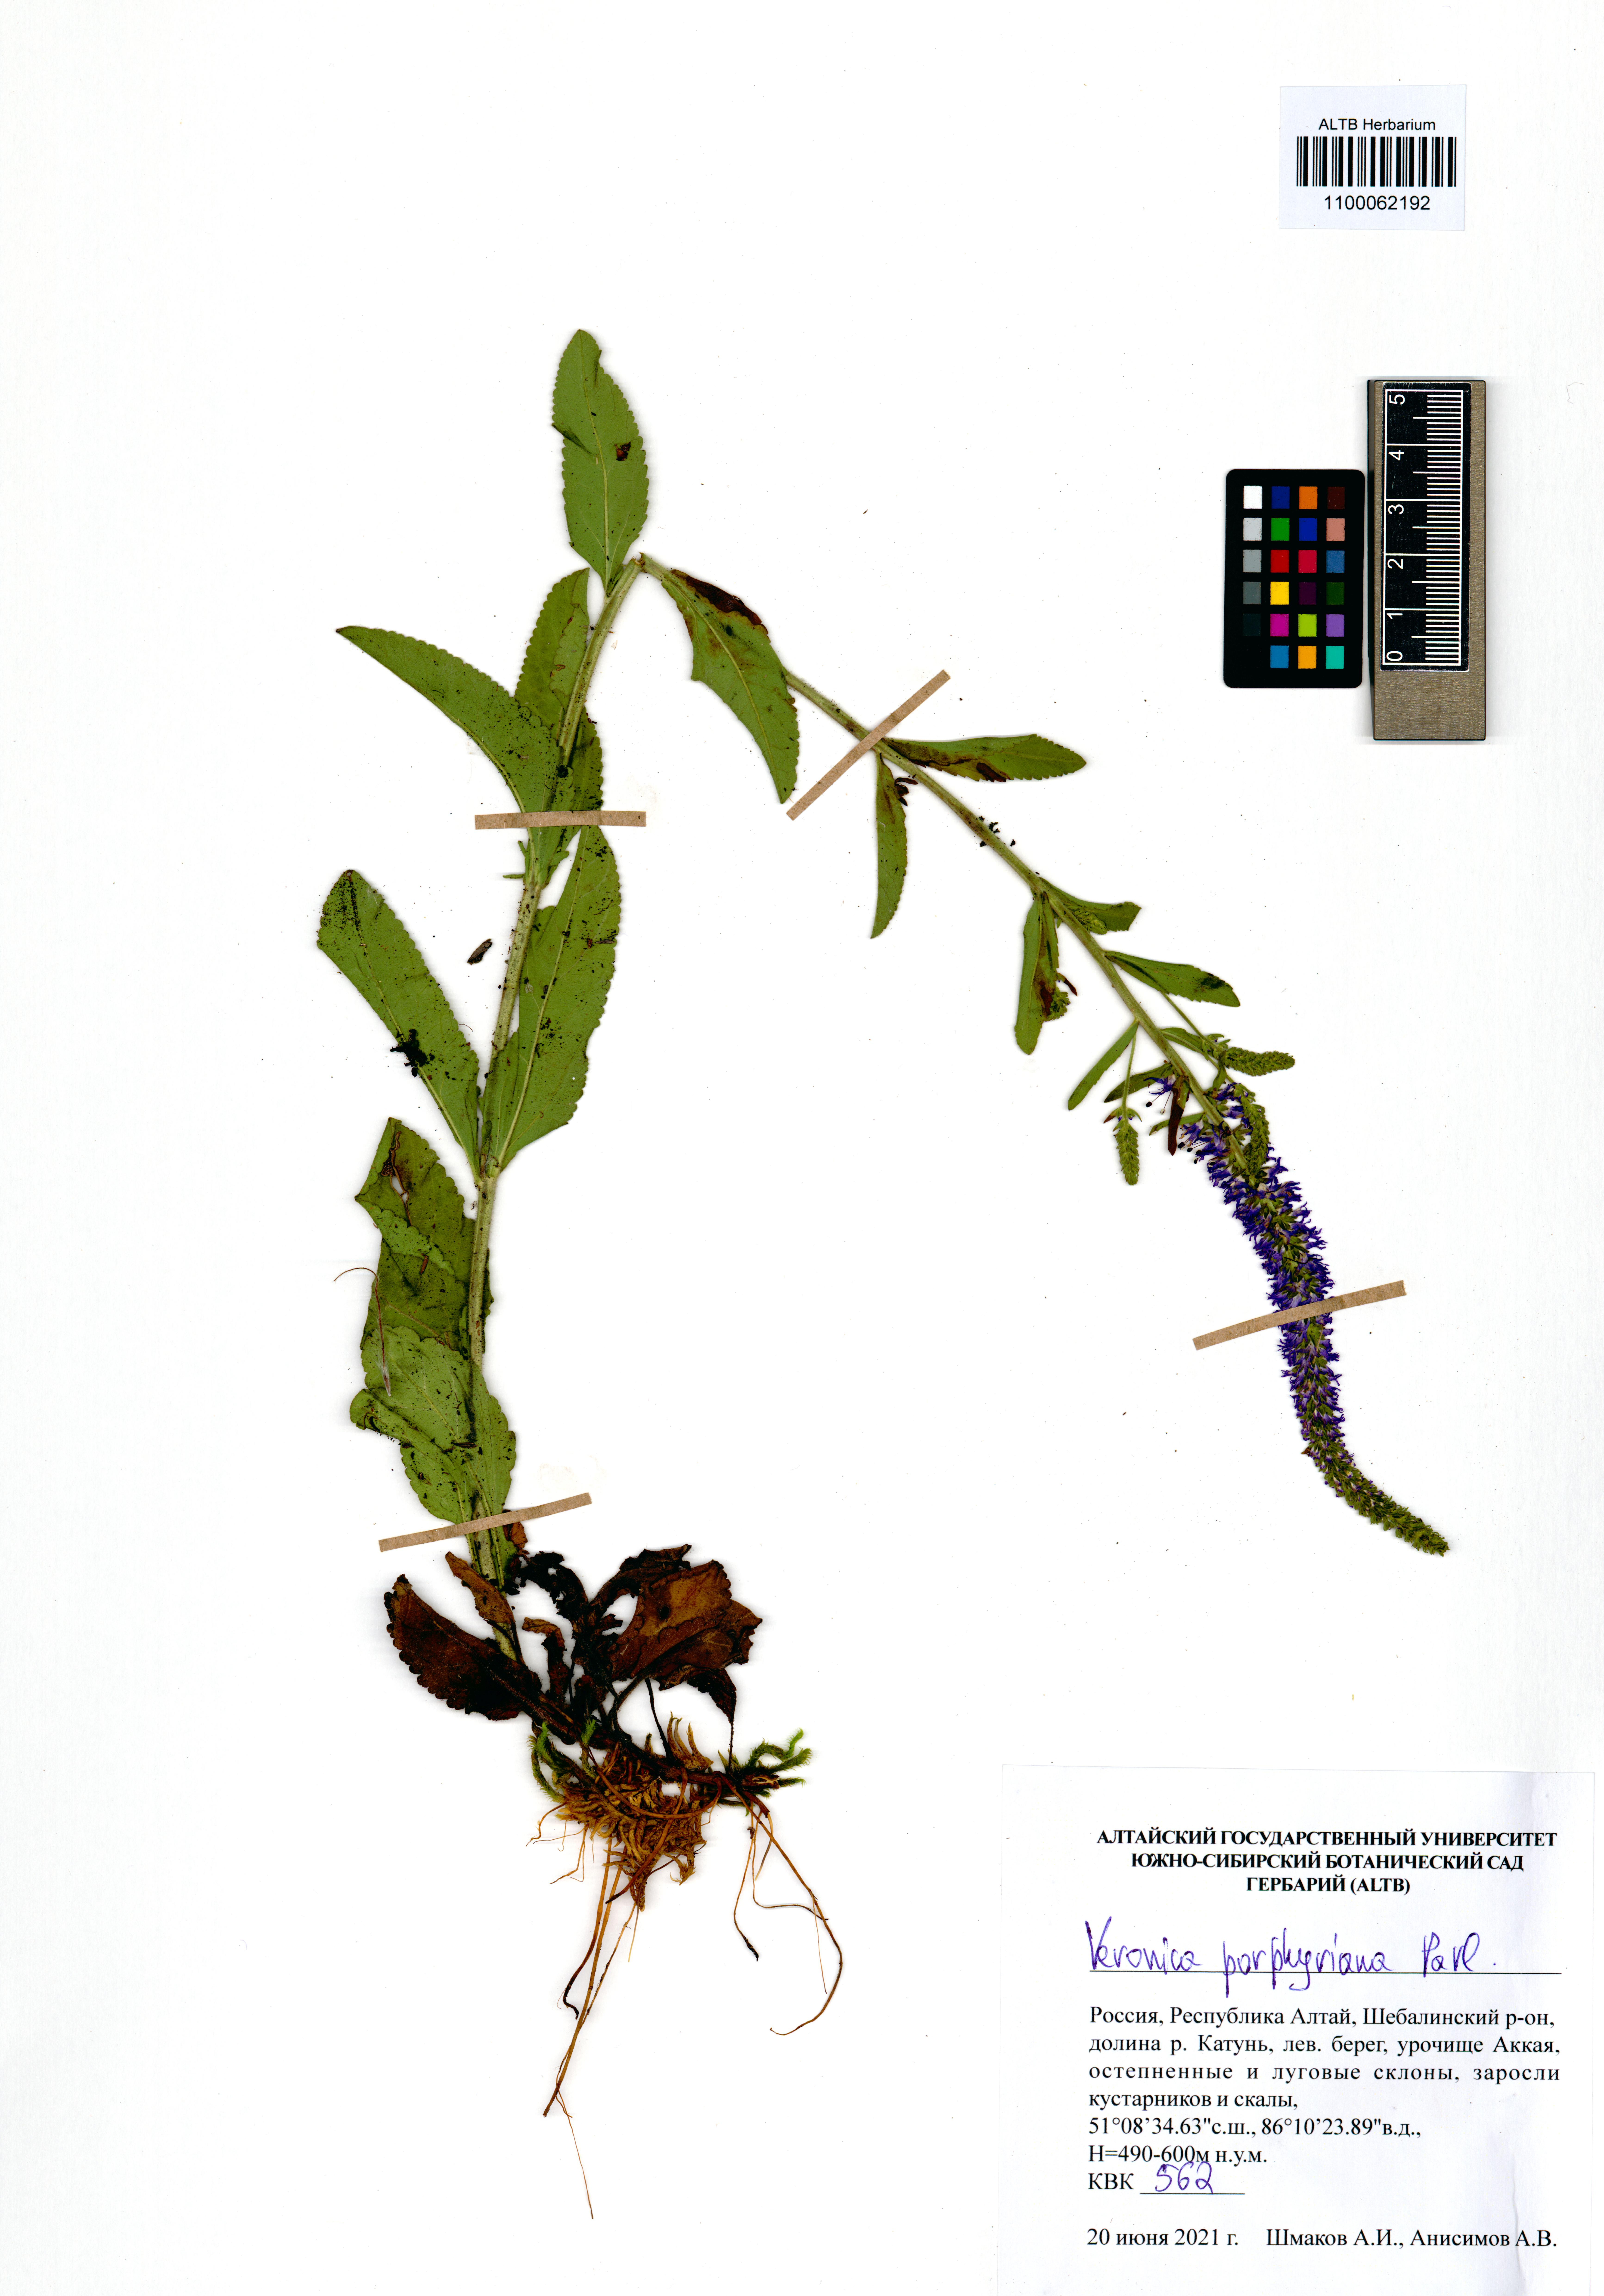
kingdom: Plantae
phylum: Tracheophyta
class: Magnoliopsida
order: Lamiales
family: Plantaginaceae
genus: Veronica
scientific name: Veronica porphyriana
